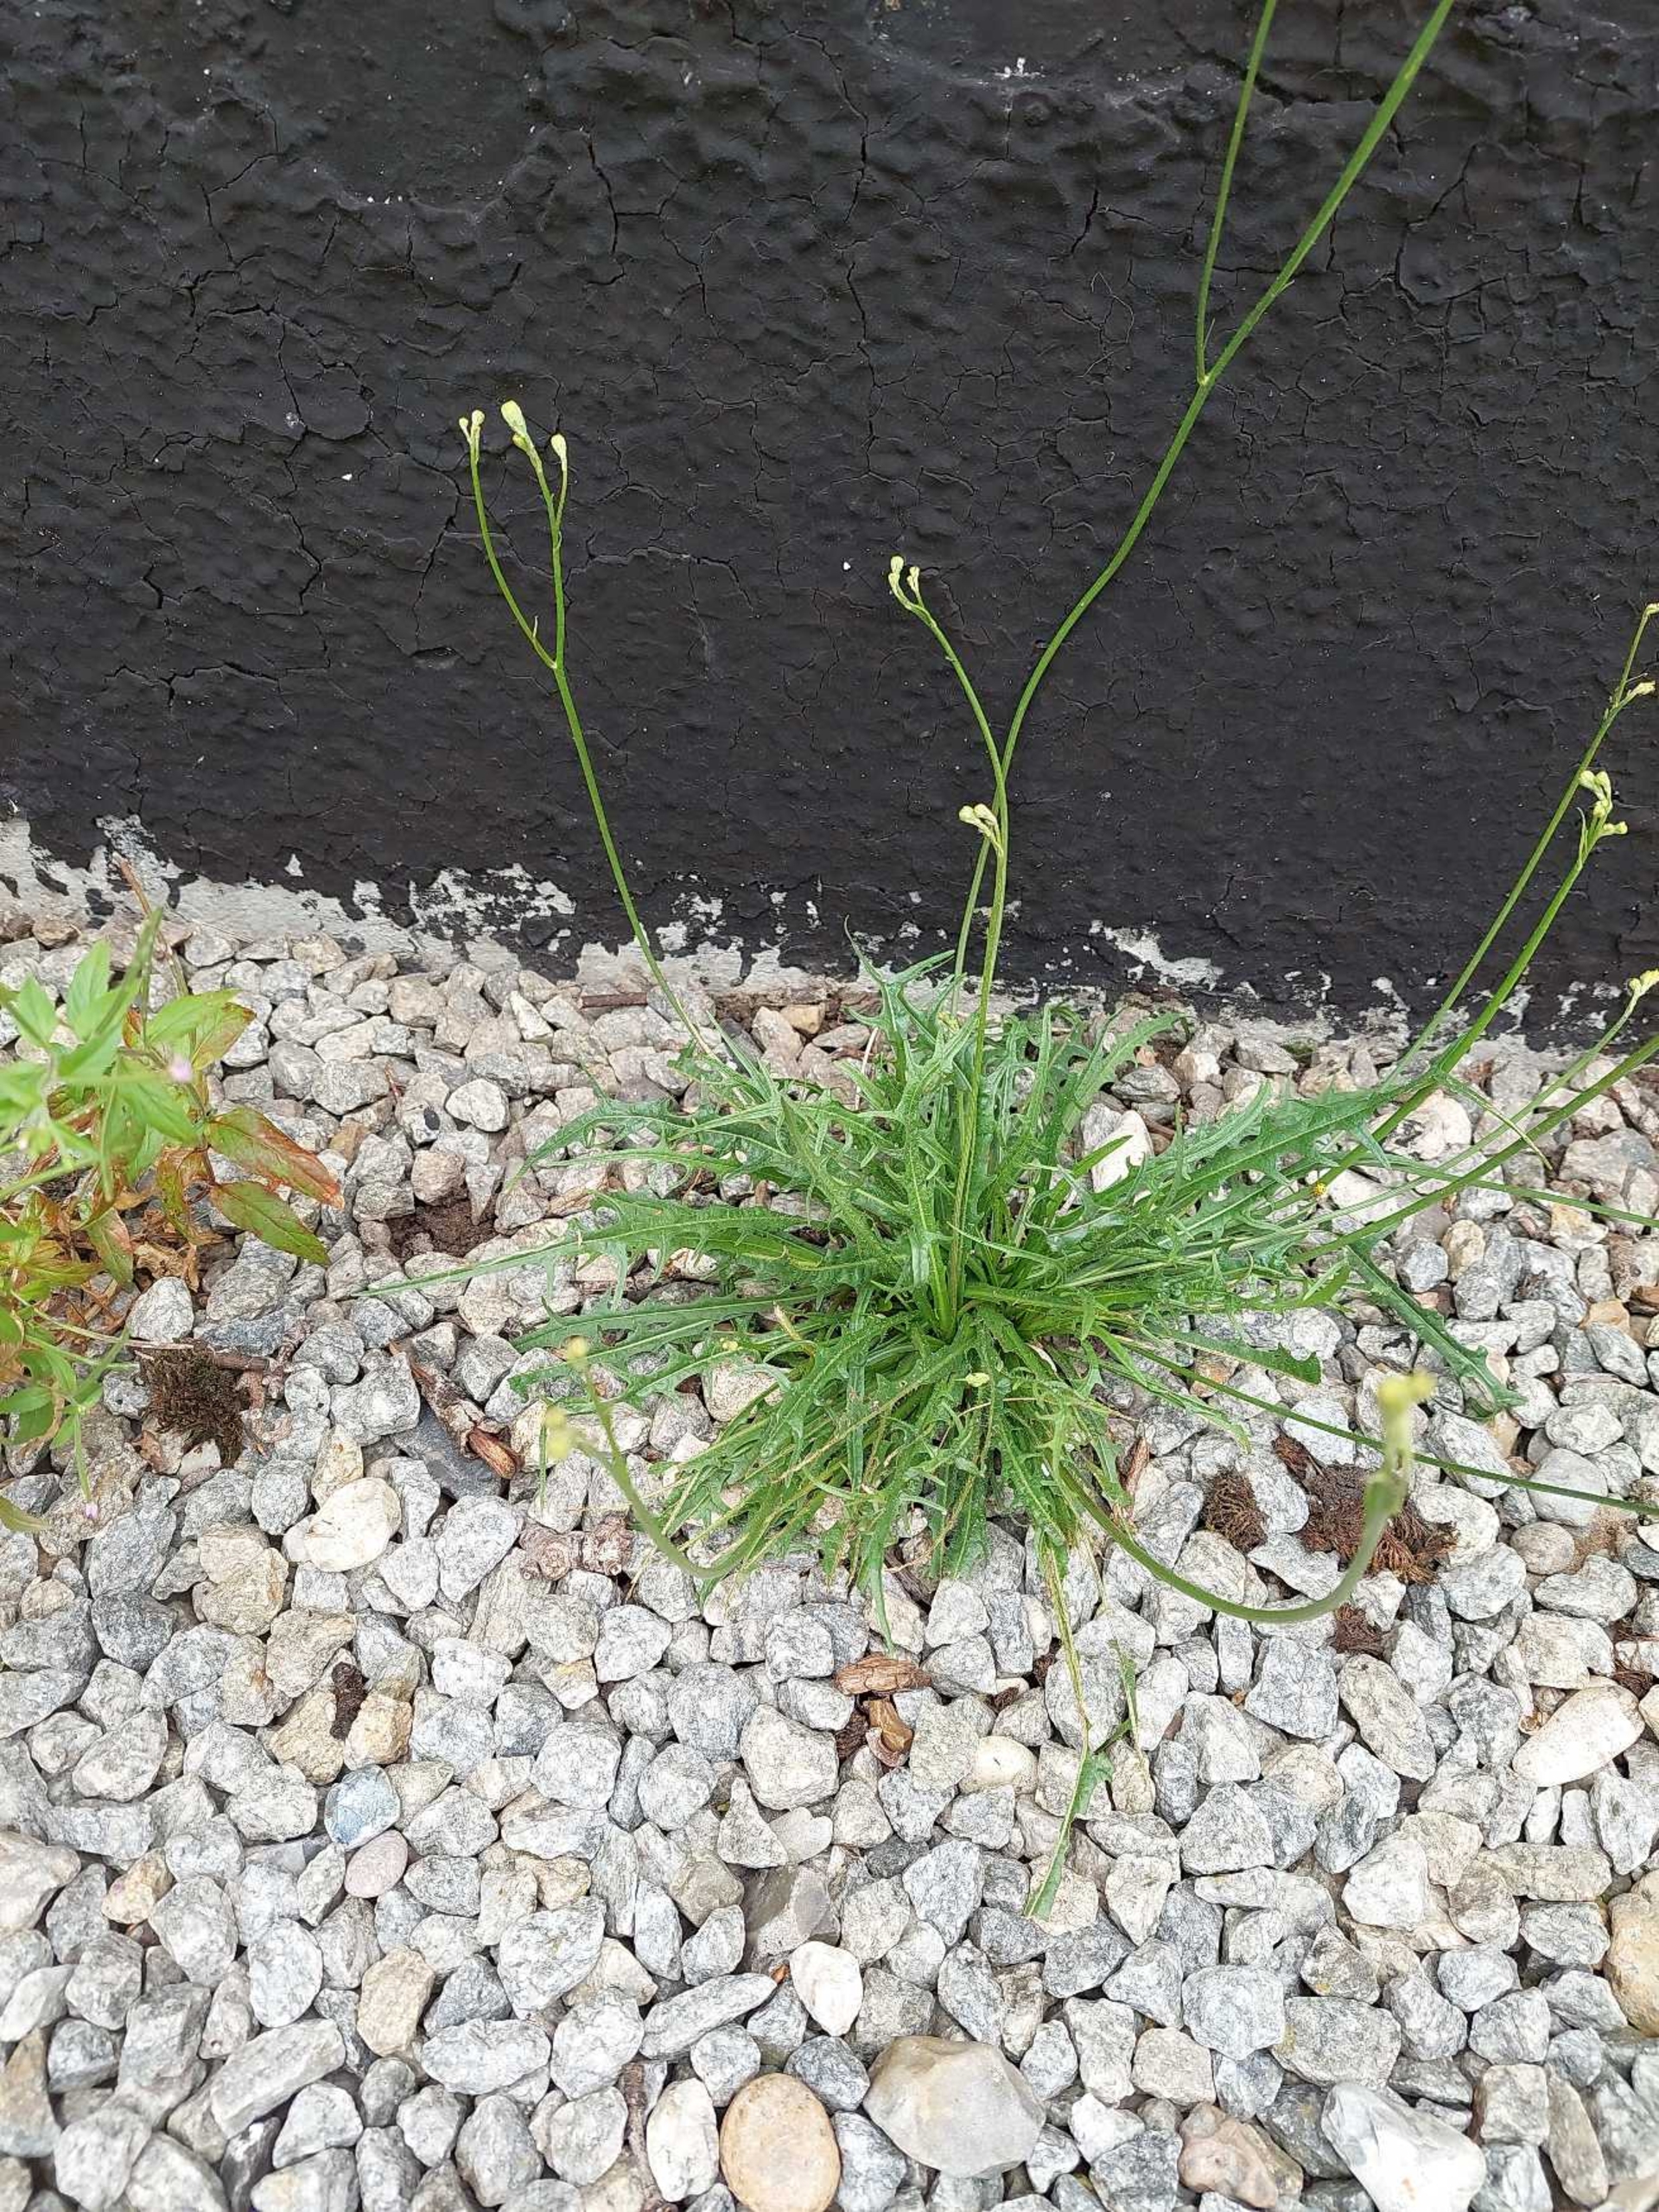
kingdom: Plantae
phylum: Tracheophyta
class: Magnoliopsida
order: Asterales
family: Asteraceae
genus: Scorzoneroides
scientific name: Scorzoneroides autumnalis
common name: Høst-borst
